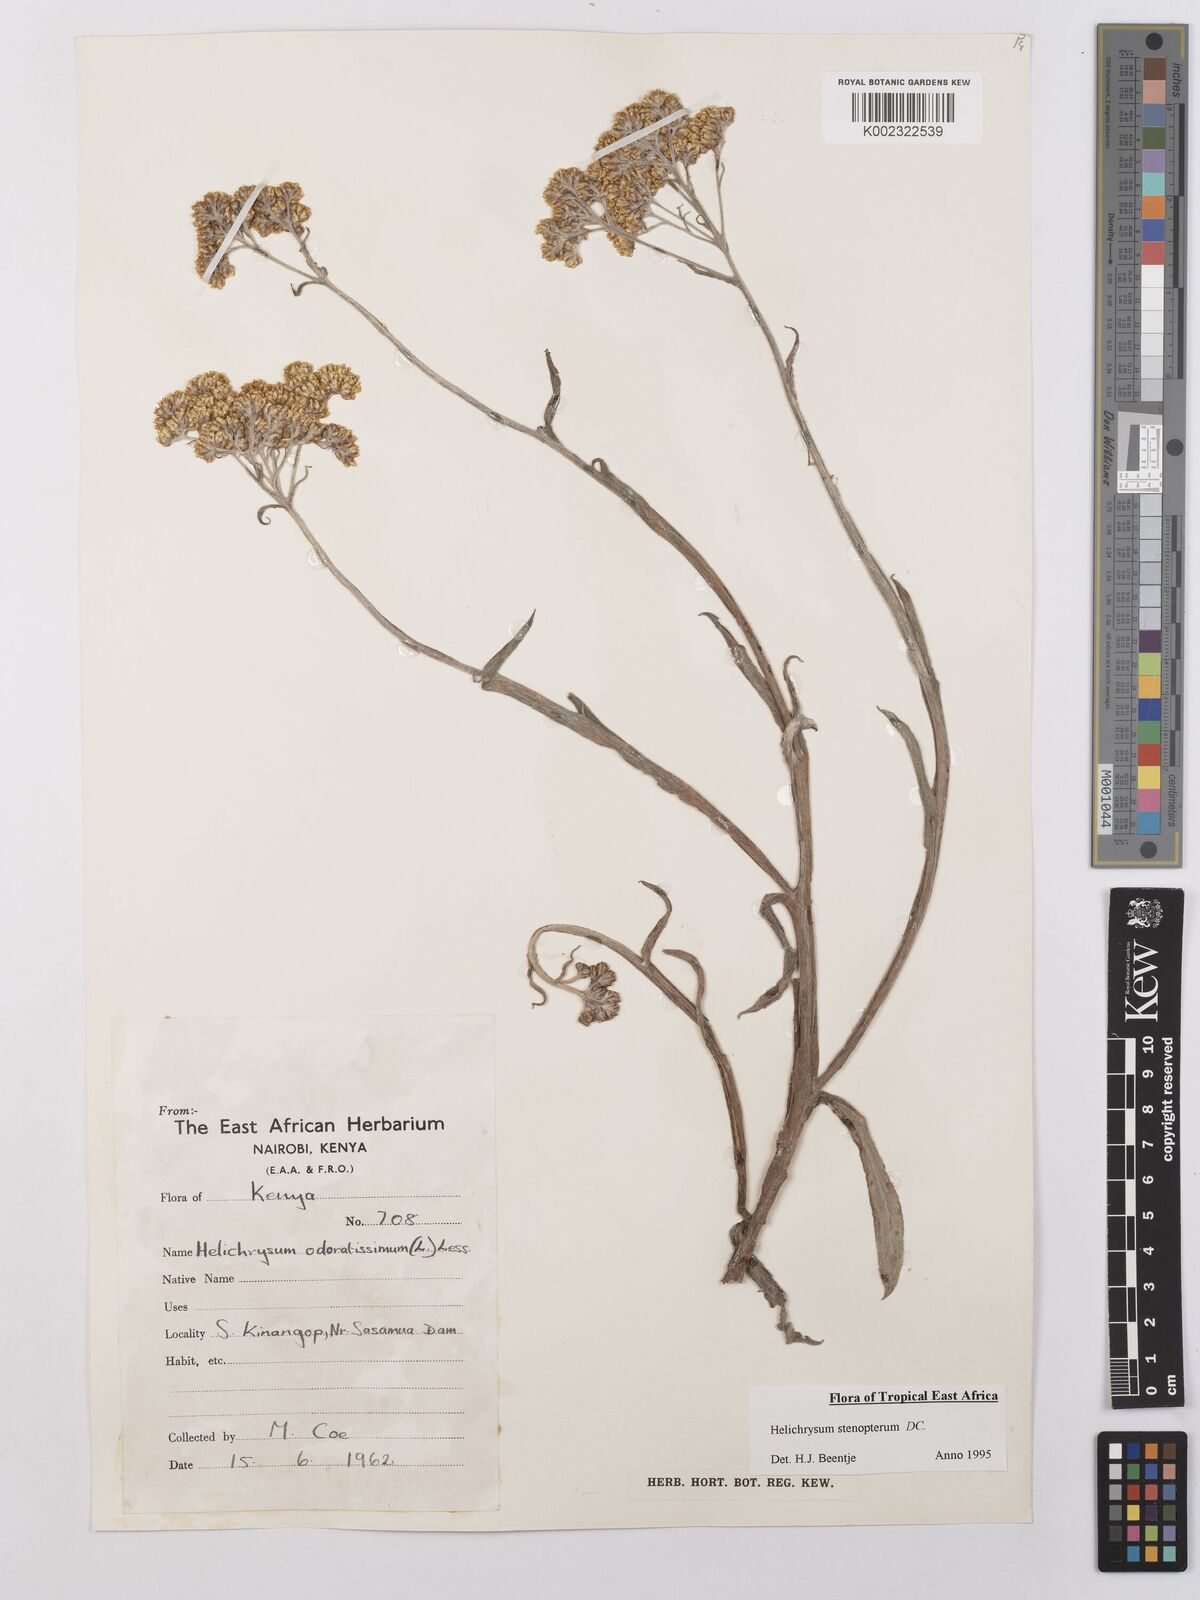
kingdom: Plantae
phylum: Tracheophyta
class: Magnoliopsida
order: Asterales
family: Asteraceae
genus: Helichrysum
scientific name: Helichrysum stenopterum
